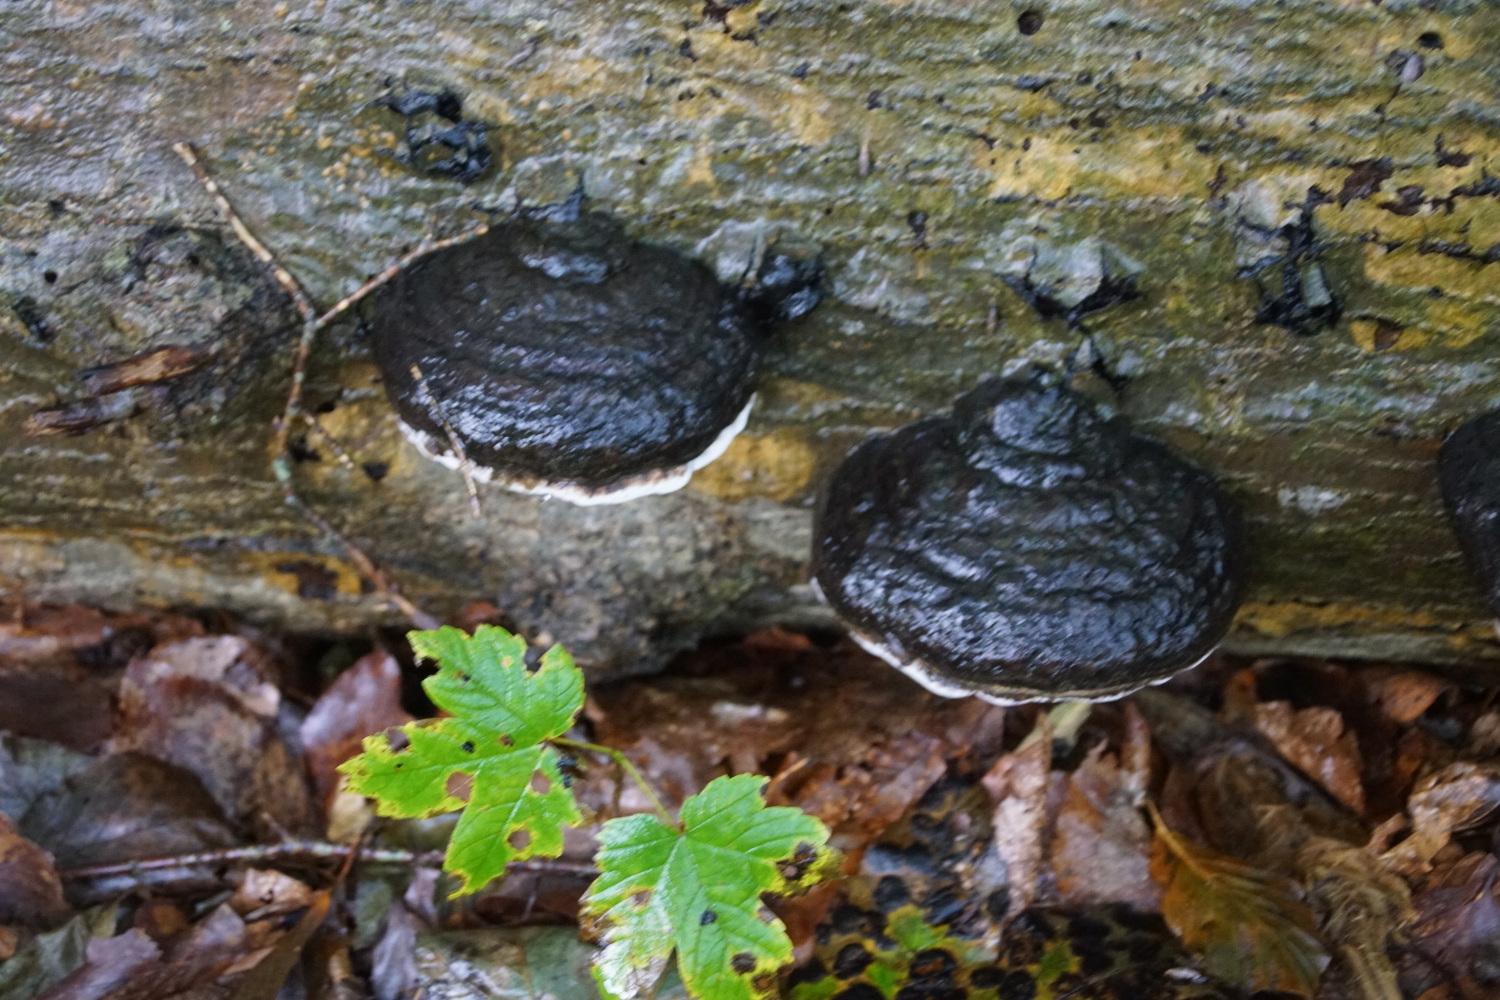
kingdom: Fungi
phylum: Basidiomycota
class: Agaricomycetes
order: Polyporales
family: Polyporaceae
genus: Fomes
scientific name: Fomes fomentarius
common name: tøndersvamp
